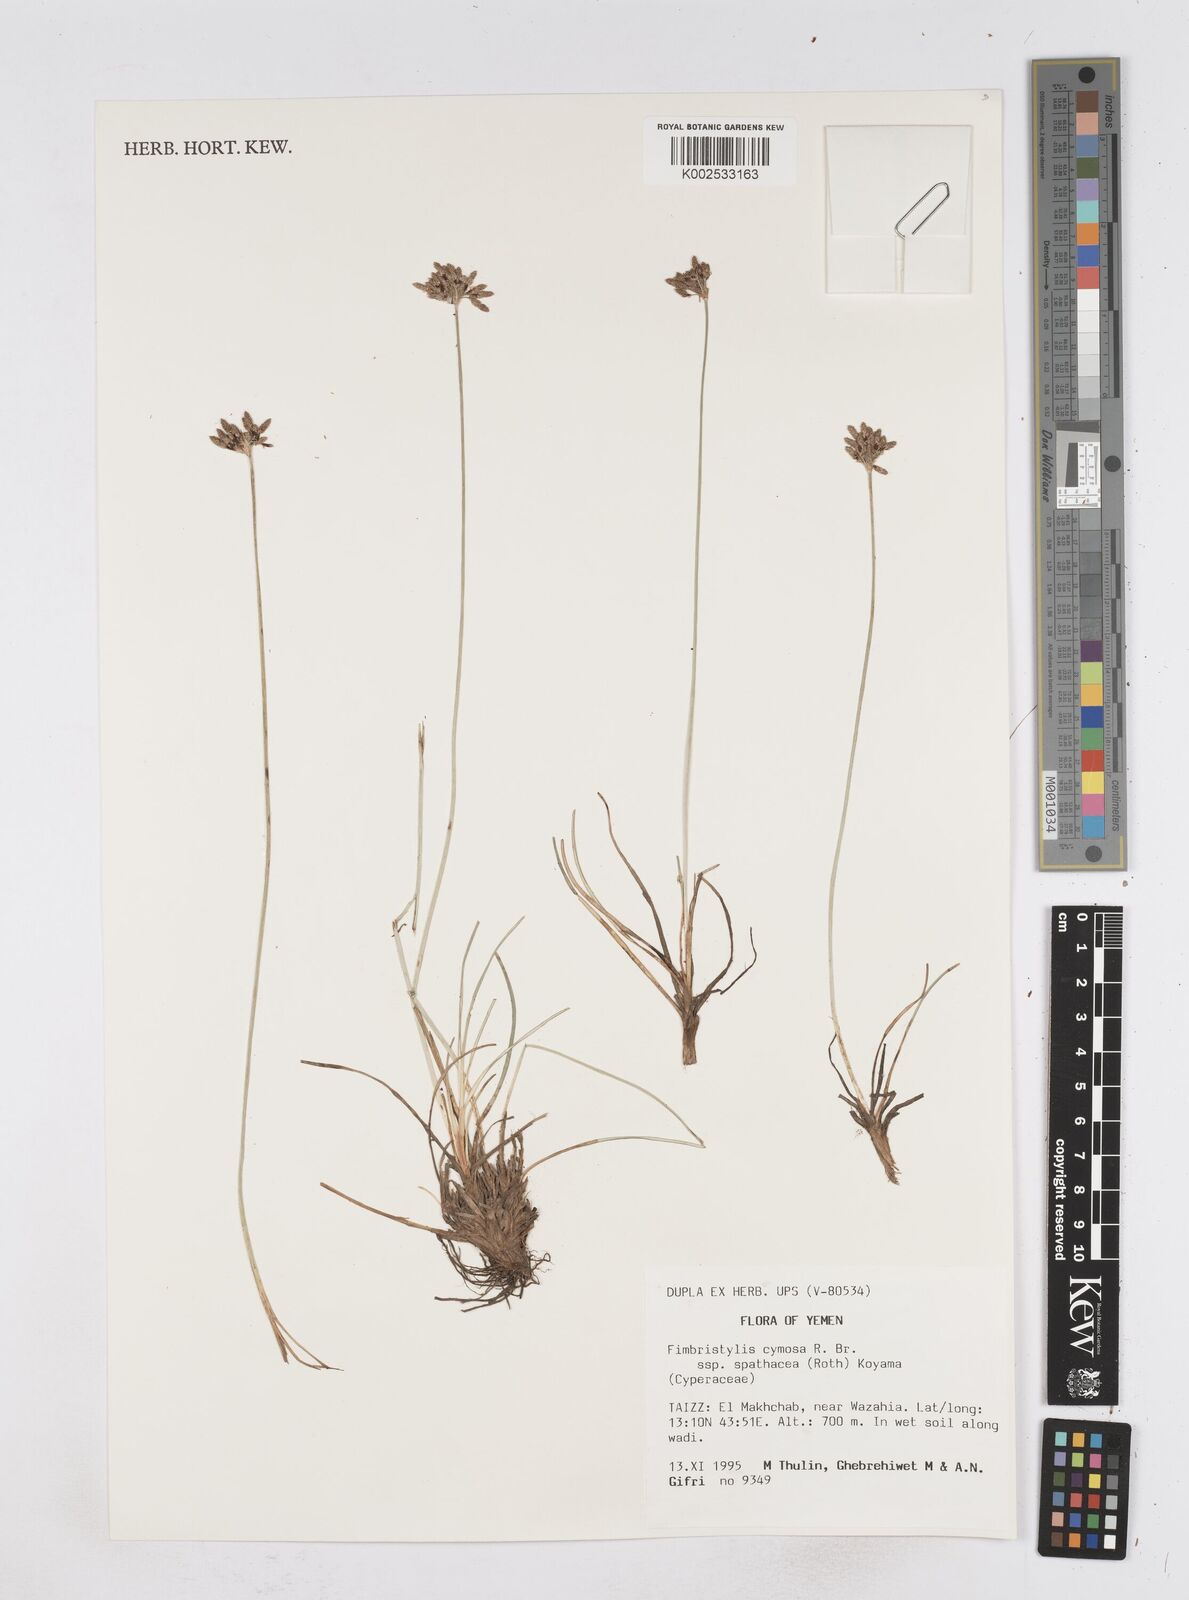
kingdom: Plantae
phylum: Tracheophyta
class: Liliopsida
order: Poales
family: Cyperaceae
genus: Fimbristylis
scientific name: Fimbristylis cymosa
